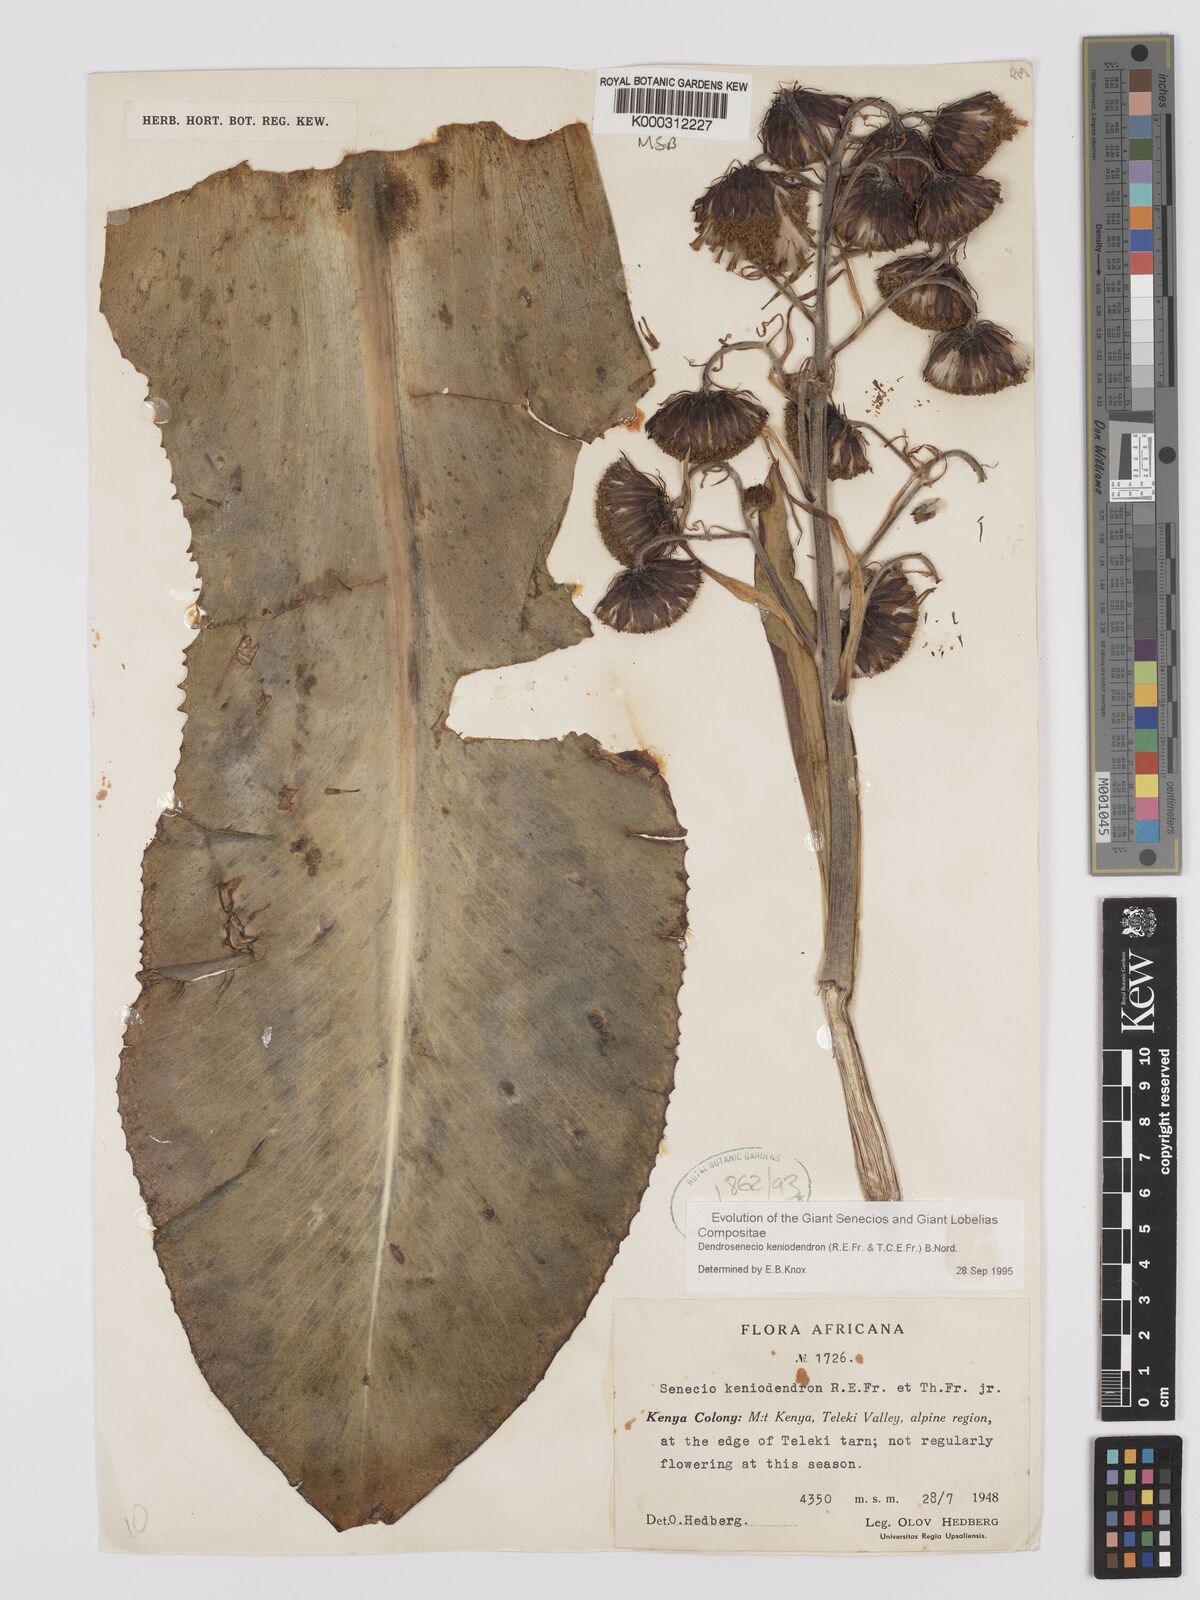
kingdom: Plantae
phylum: Tracheophyta
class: Magnoliopsida
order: Asterales
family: Asteraceae
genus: Dendrosenecio
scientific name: Dendrosenecio keniodendron
